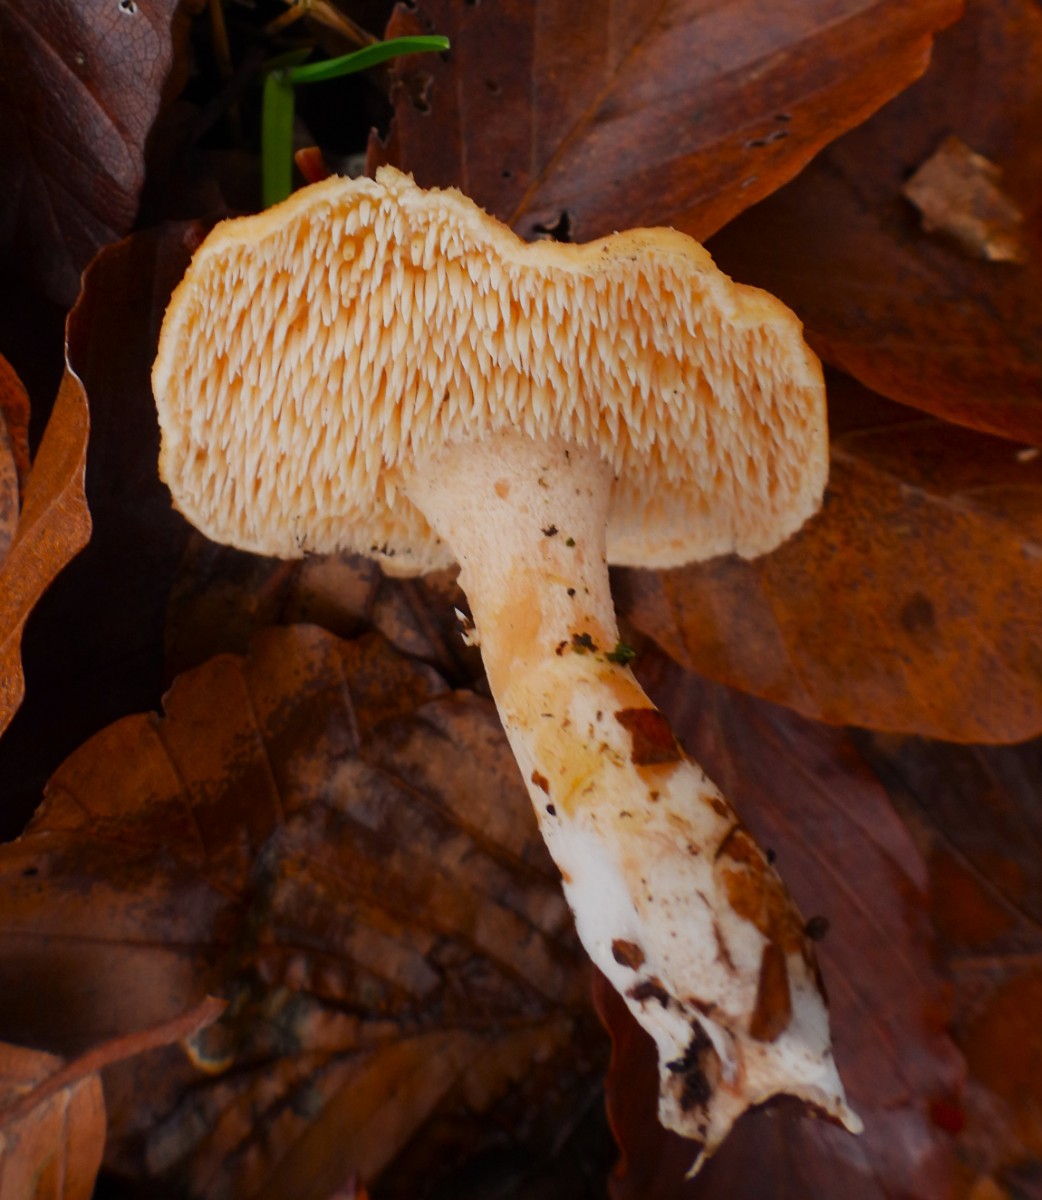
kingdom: Fungi
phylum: Basidiomycota
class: Agaricomycetes
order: Cantharellales
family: Hydnaceae
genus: Hydnum
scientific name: Hydnum rufescens
